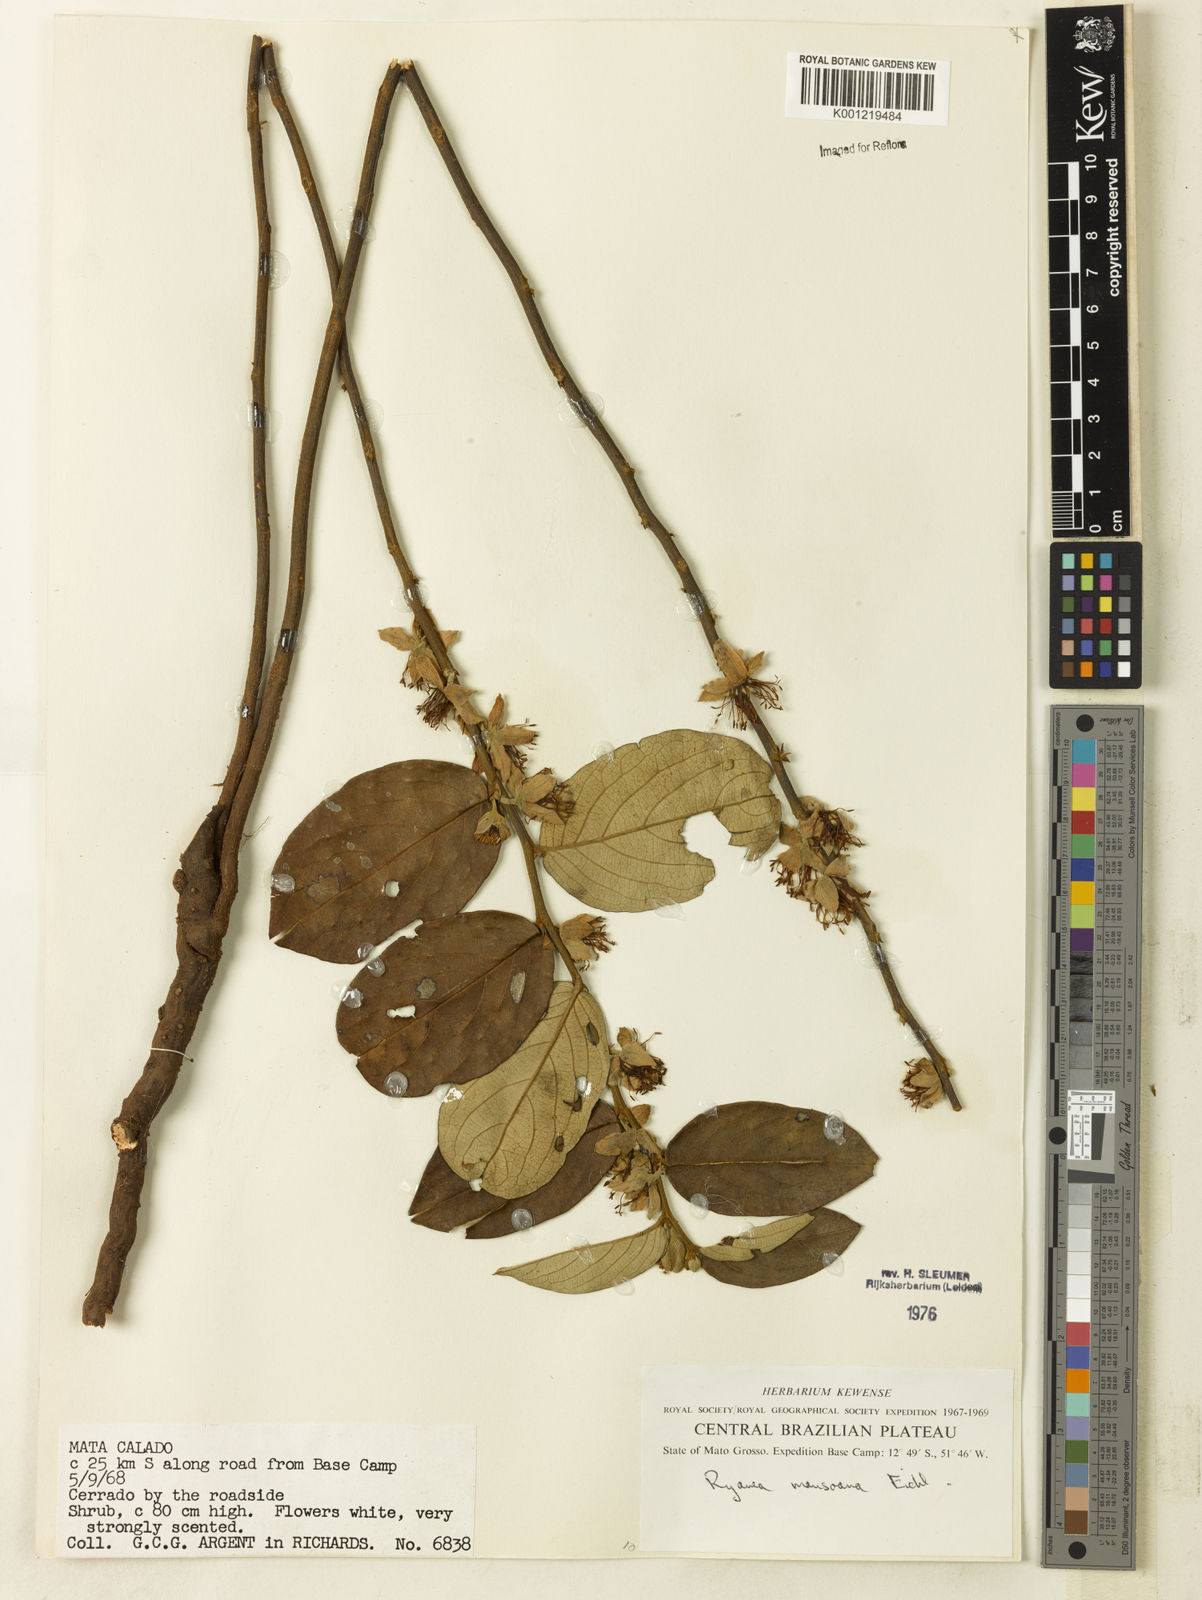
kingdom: Plantae
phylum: Tracheophyta
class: Magnoliopsida
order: Malpighiales
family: Salicaceae
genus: Ryania
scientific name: Ryania mansoana
